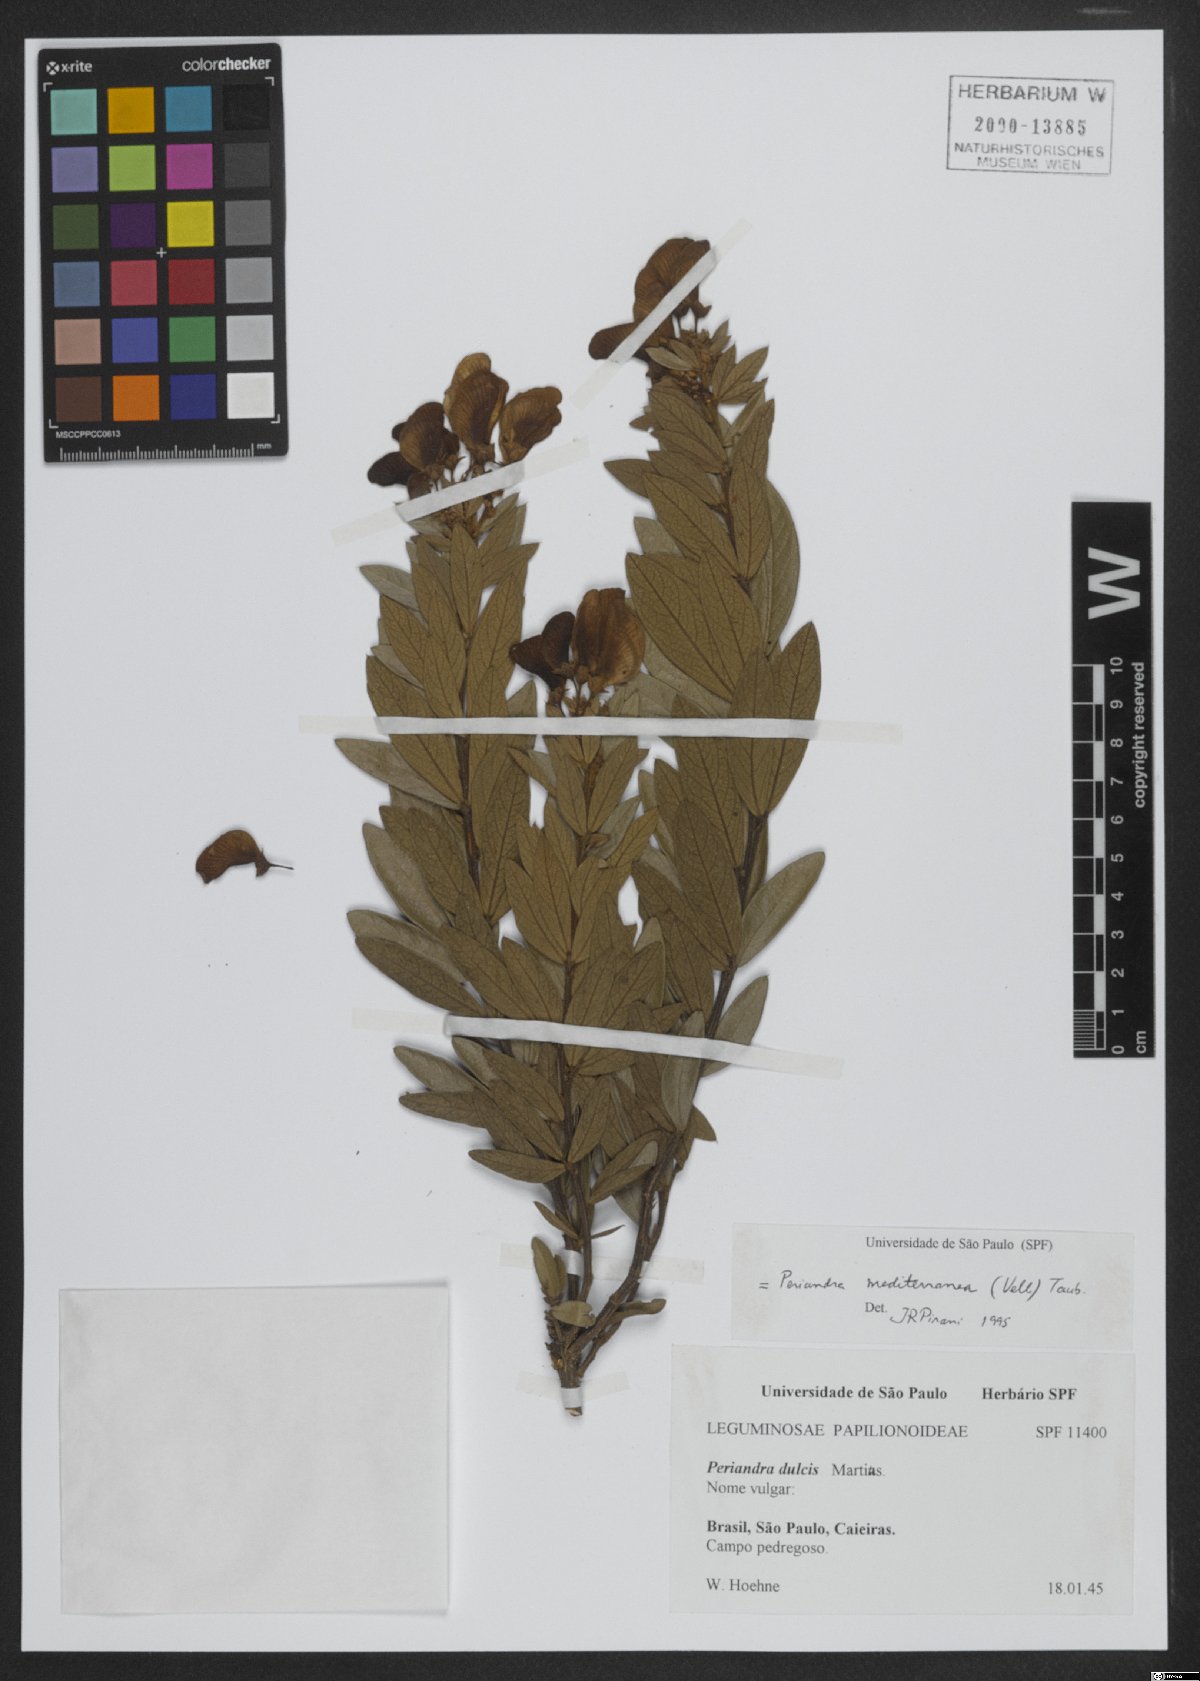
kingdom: Plantae
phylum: Tracheophyta
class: Magnoliopsida
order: Fabales
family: Fabaceae
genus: Periandra
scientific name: Periandra mediterranea
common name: Brazilian licorice
